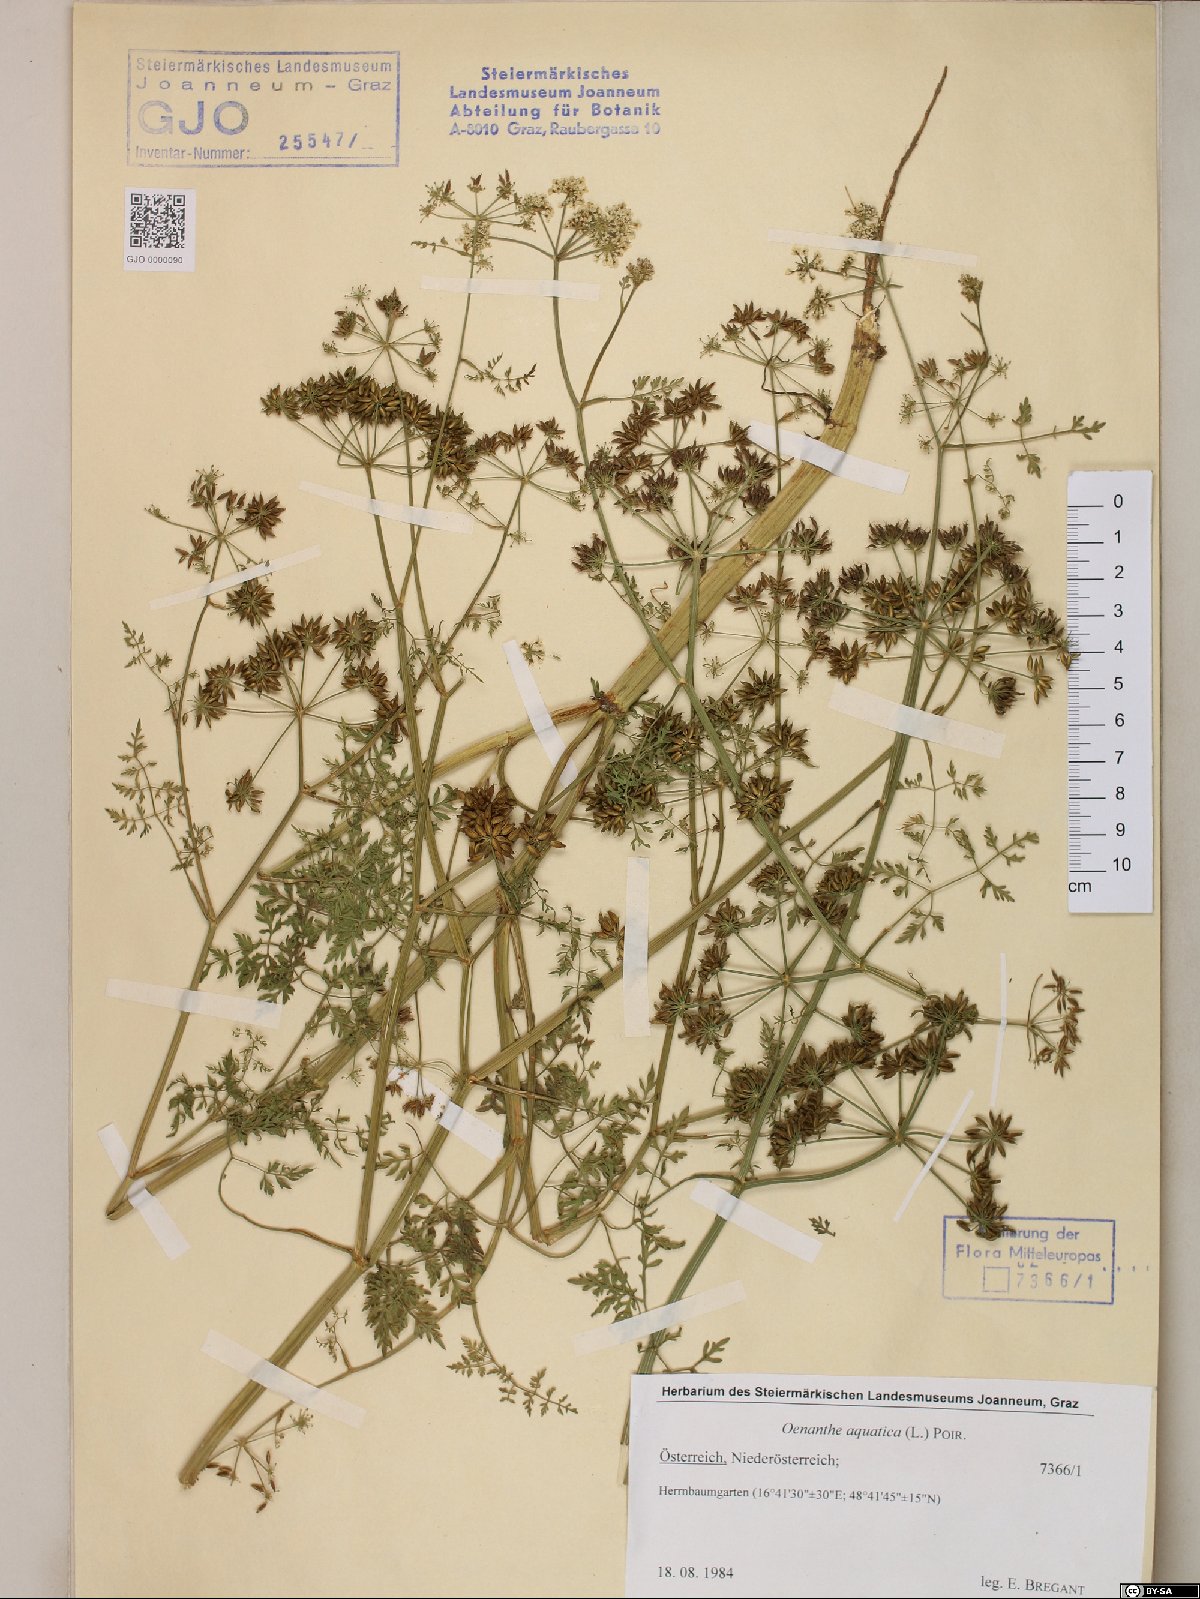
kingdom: Plantae
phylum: Tracheophyta
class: Magnoliopsida
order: Apiales
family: Apiaceae
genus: Oenanthe
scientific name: Oenanthe aquatica
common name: Fine-leaved water-dropwort
